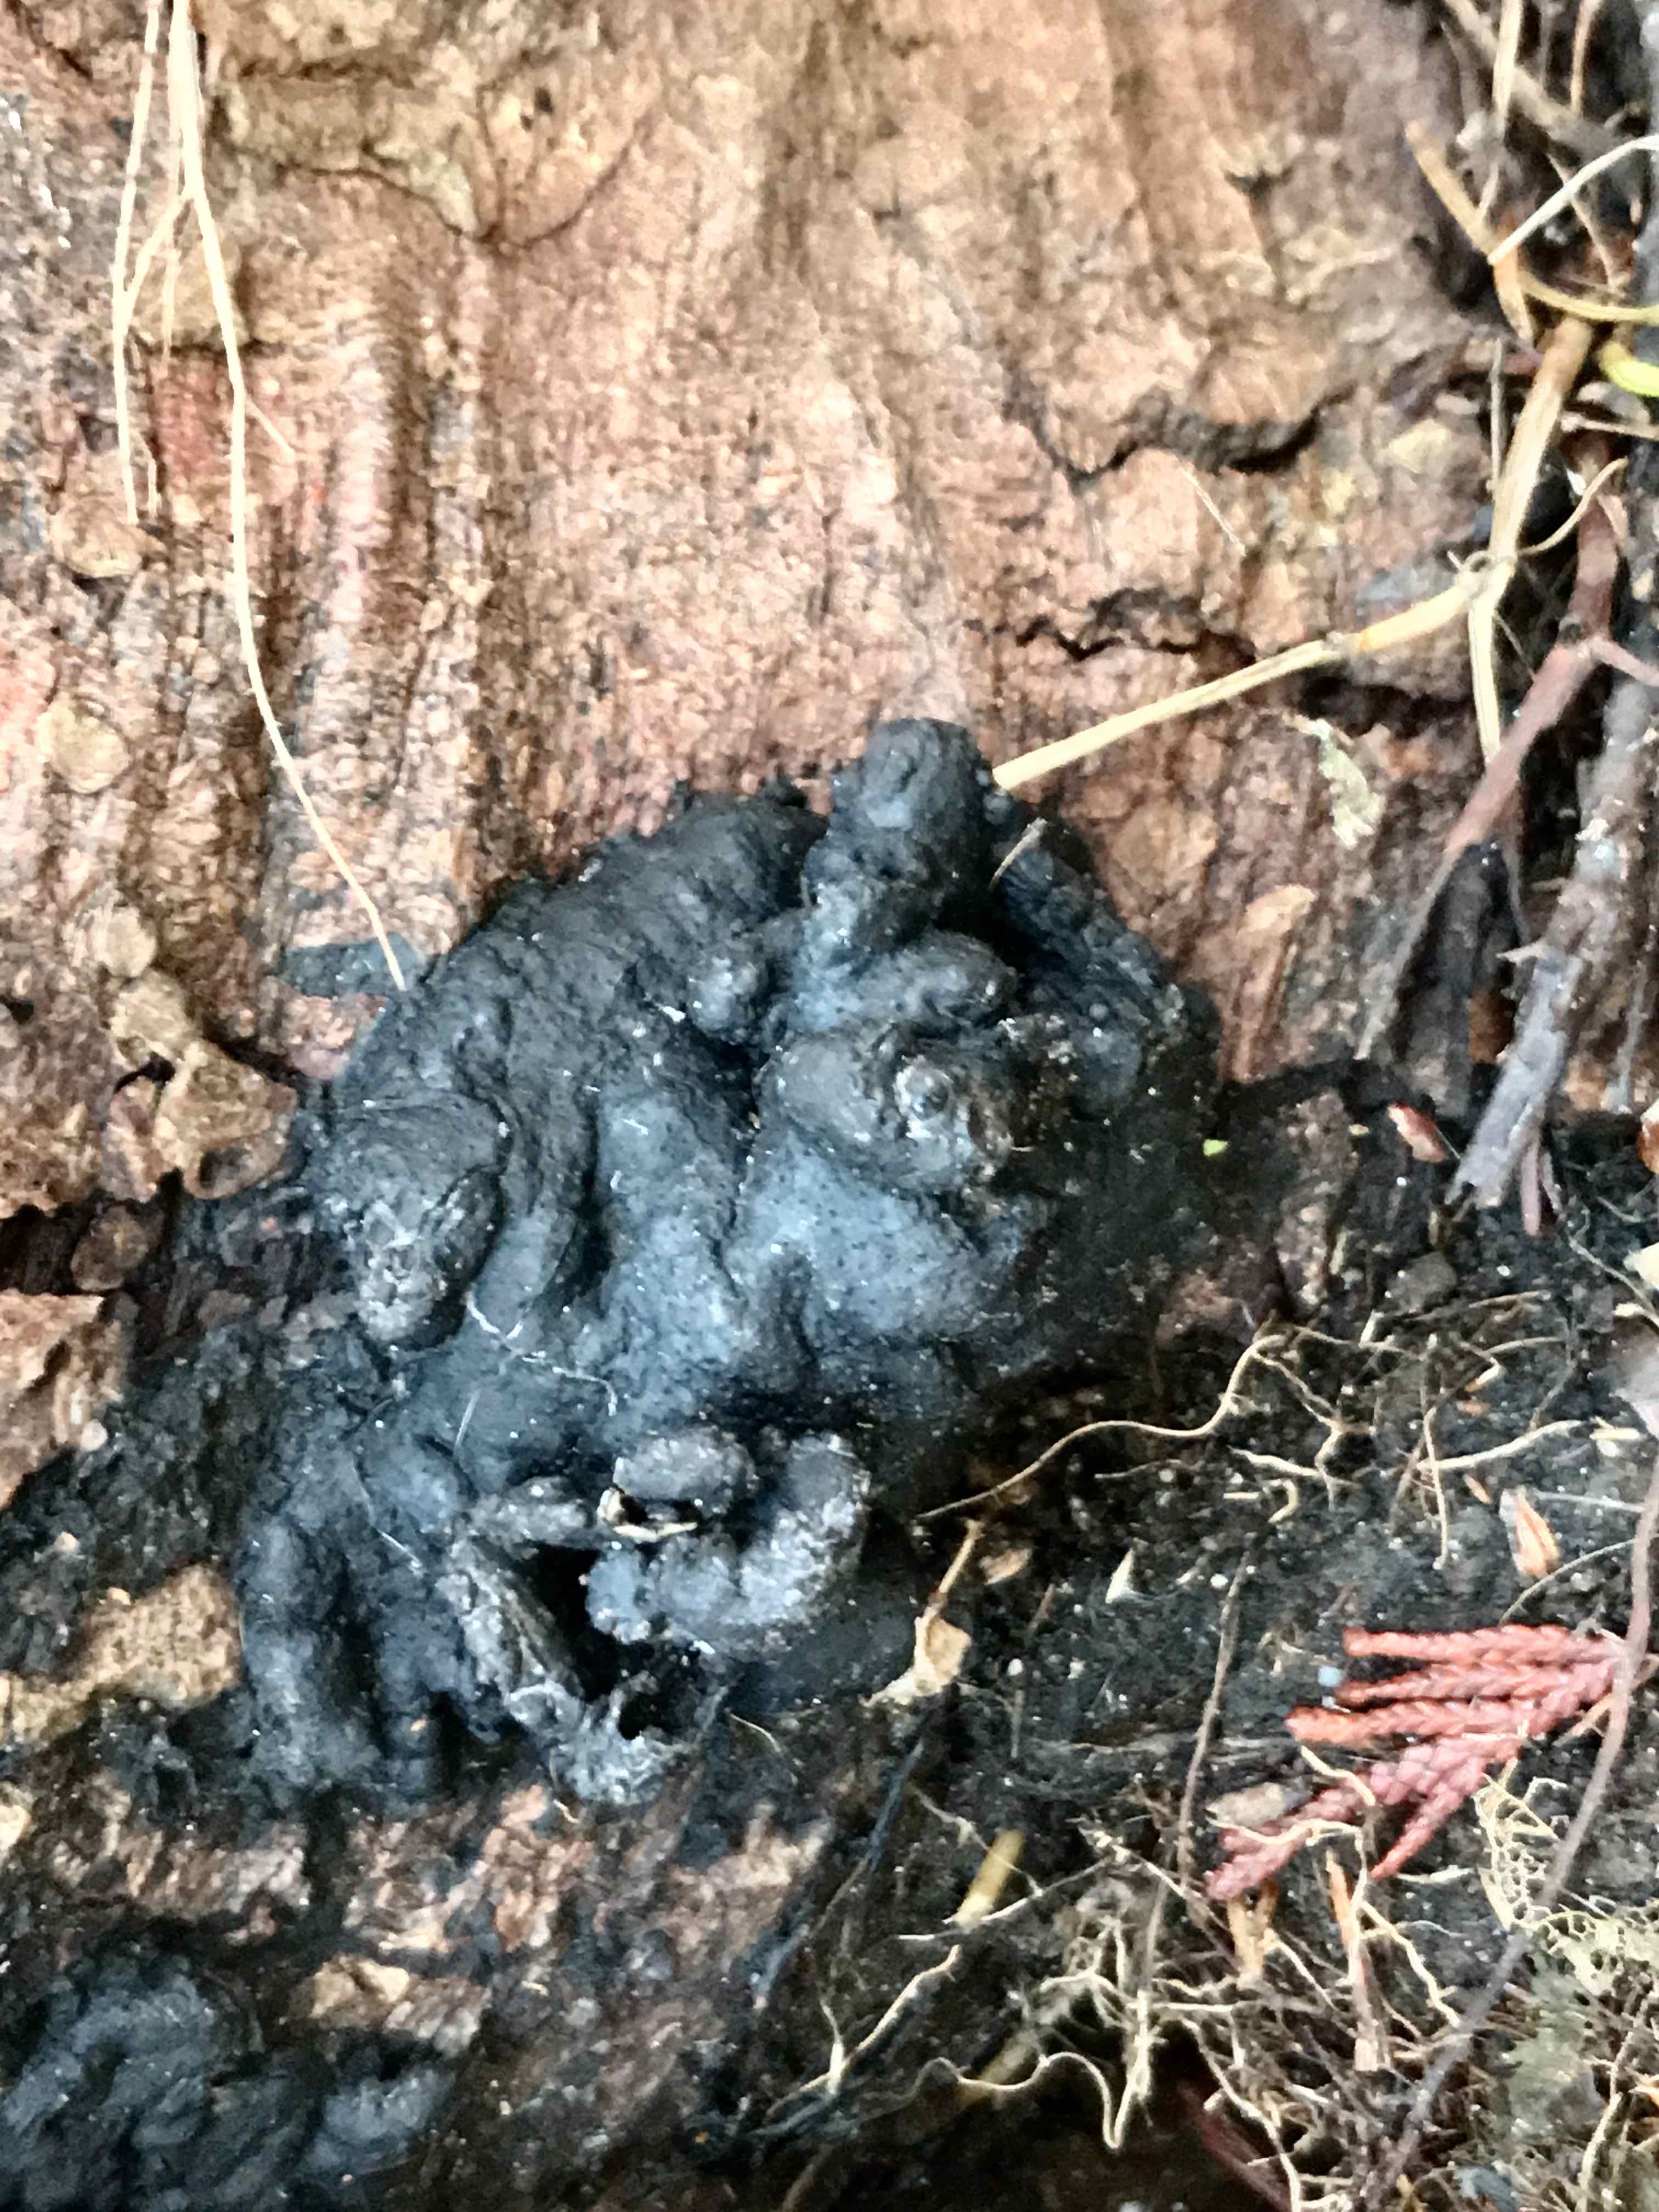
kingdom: Fungi
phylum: Ascomycota
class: Sordariomycetes
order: Xylariales
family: Xylariaceae
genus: Kretzschmaria
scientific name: Kretzschmaria deusta
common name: stor kulsvamp
